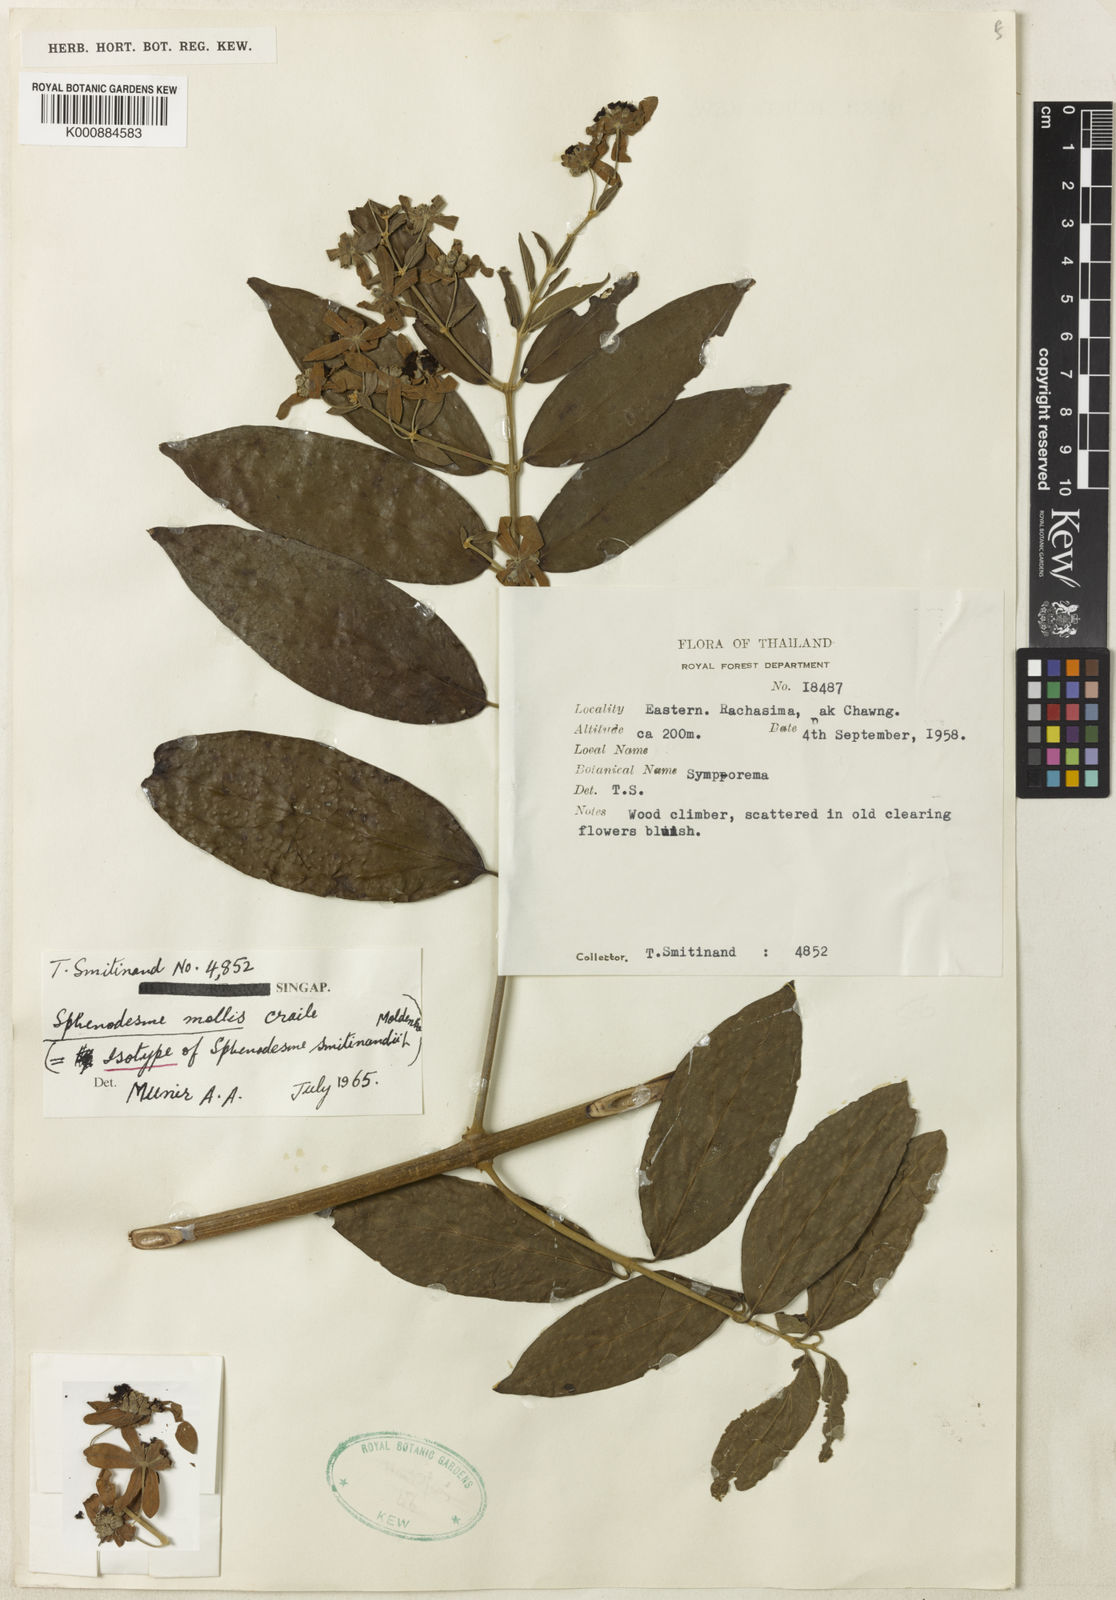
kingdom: Plantae
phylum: Tracheophyta
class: Magnoliopsida
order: Lamiales
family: Lamiaceae
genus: Sphenodesme
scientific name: Sphenodesme mollis
